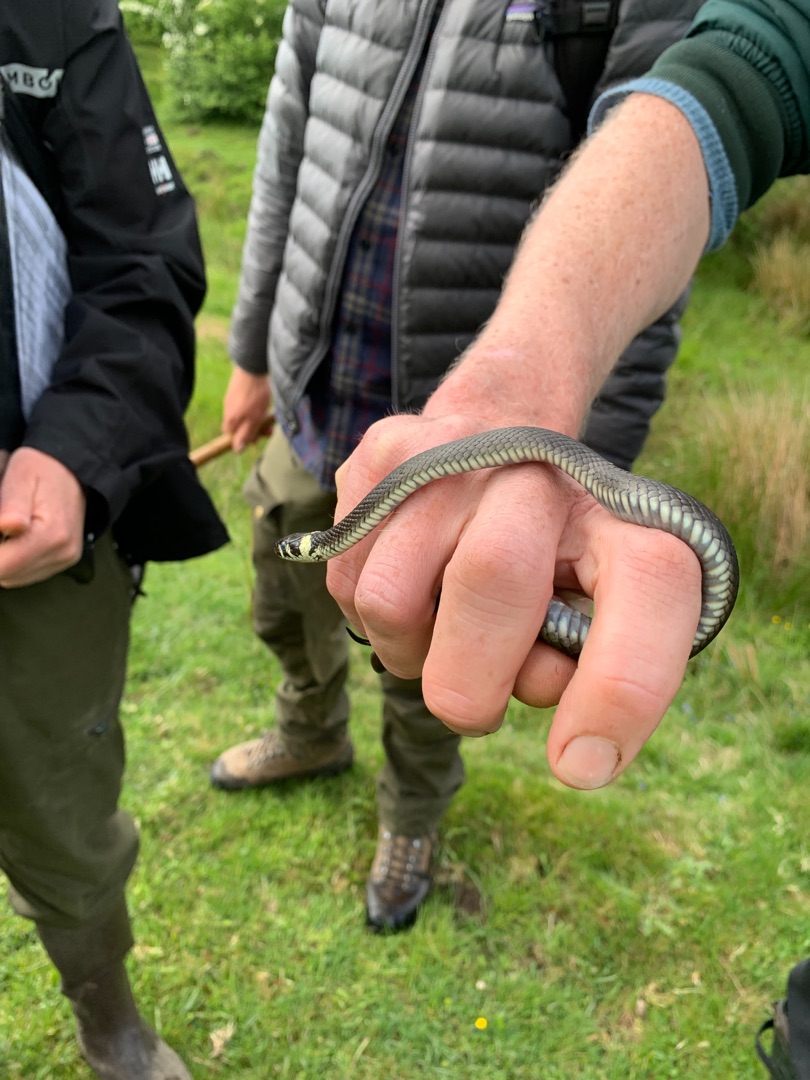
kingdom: Animalia
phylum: Chordata
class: Squamata
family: Colubridae
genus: Natrix
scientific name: Natrix natrix
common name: Snog
